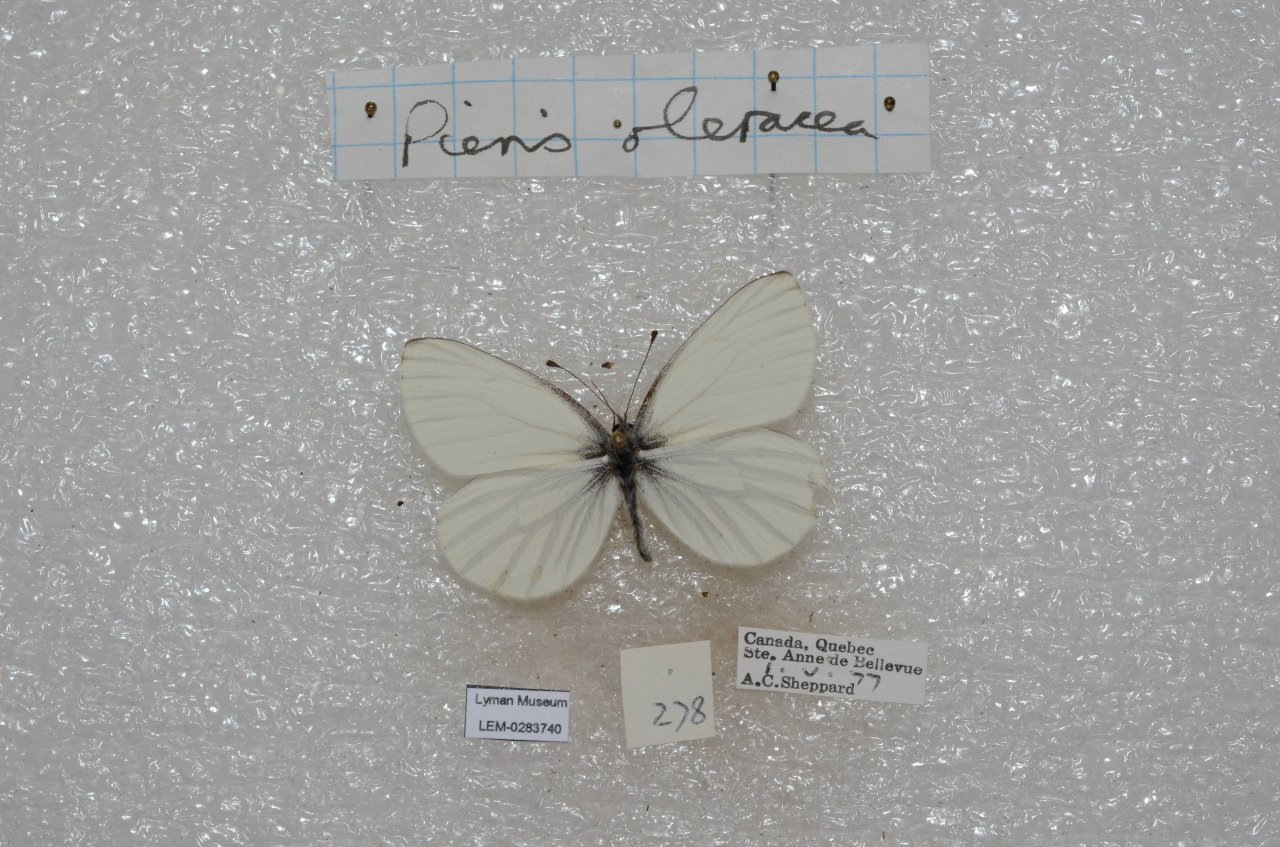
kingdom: Animalia
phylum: Arthropoda
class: Insecta
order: Lepidoptera
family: Pieridae
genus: Pieris
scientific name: Pieris oleracea
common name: Mustard White
